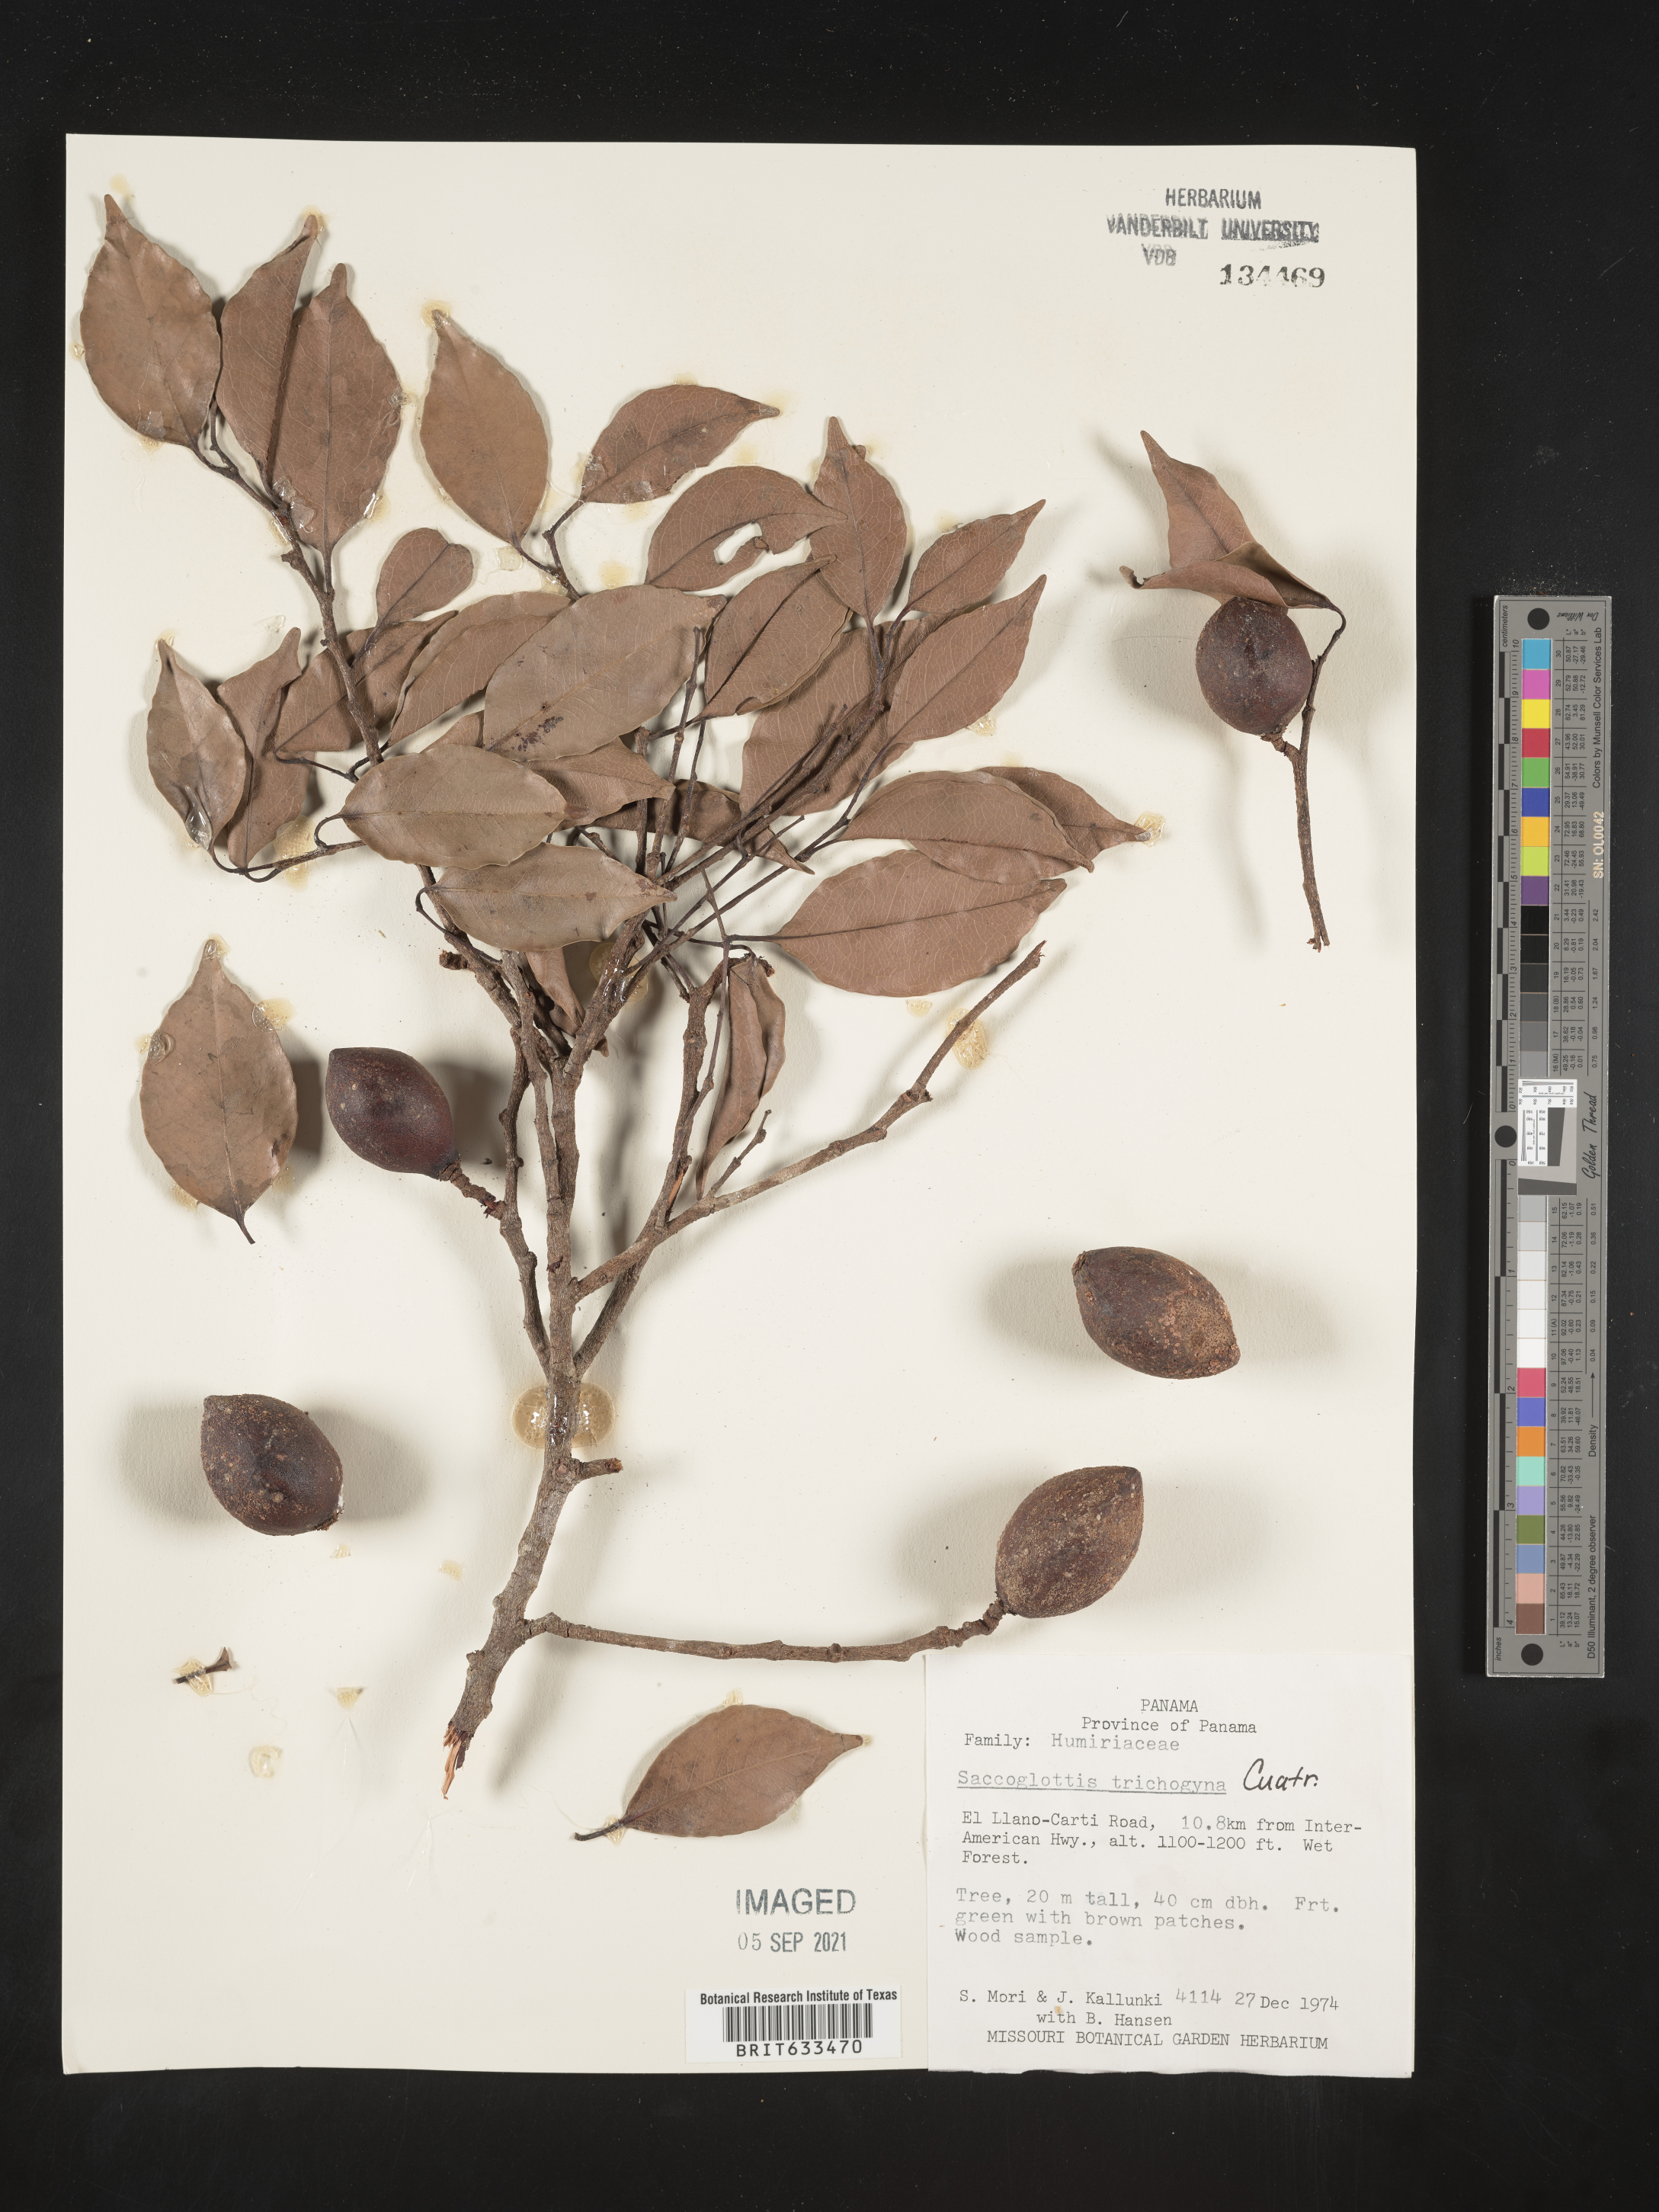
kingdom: Plantae
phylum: Tracheophyta
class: Magnoliopsida
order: Malpighiales
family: Humiriaceae
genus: Sacoglottis
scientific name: Sacoglottis
